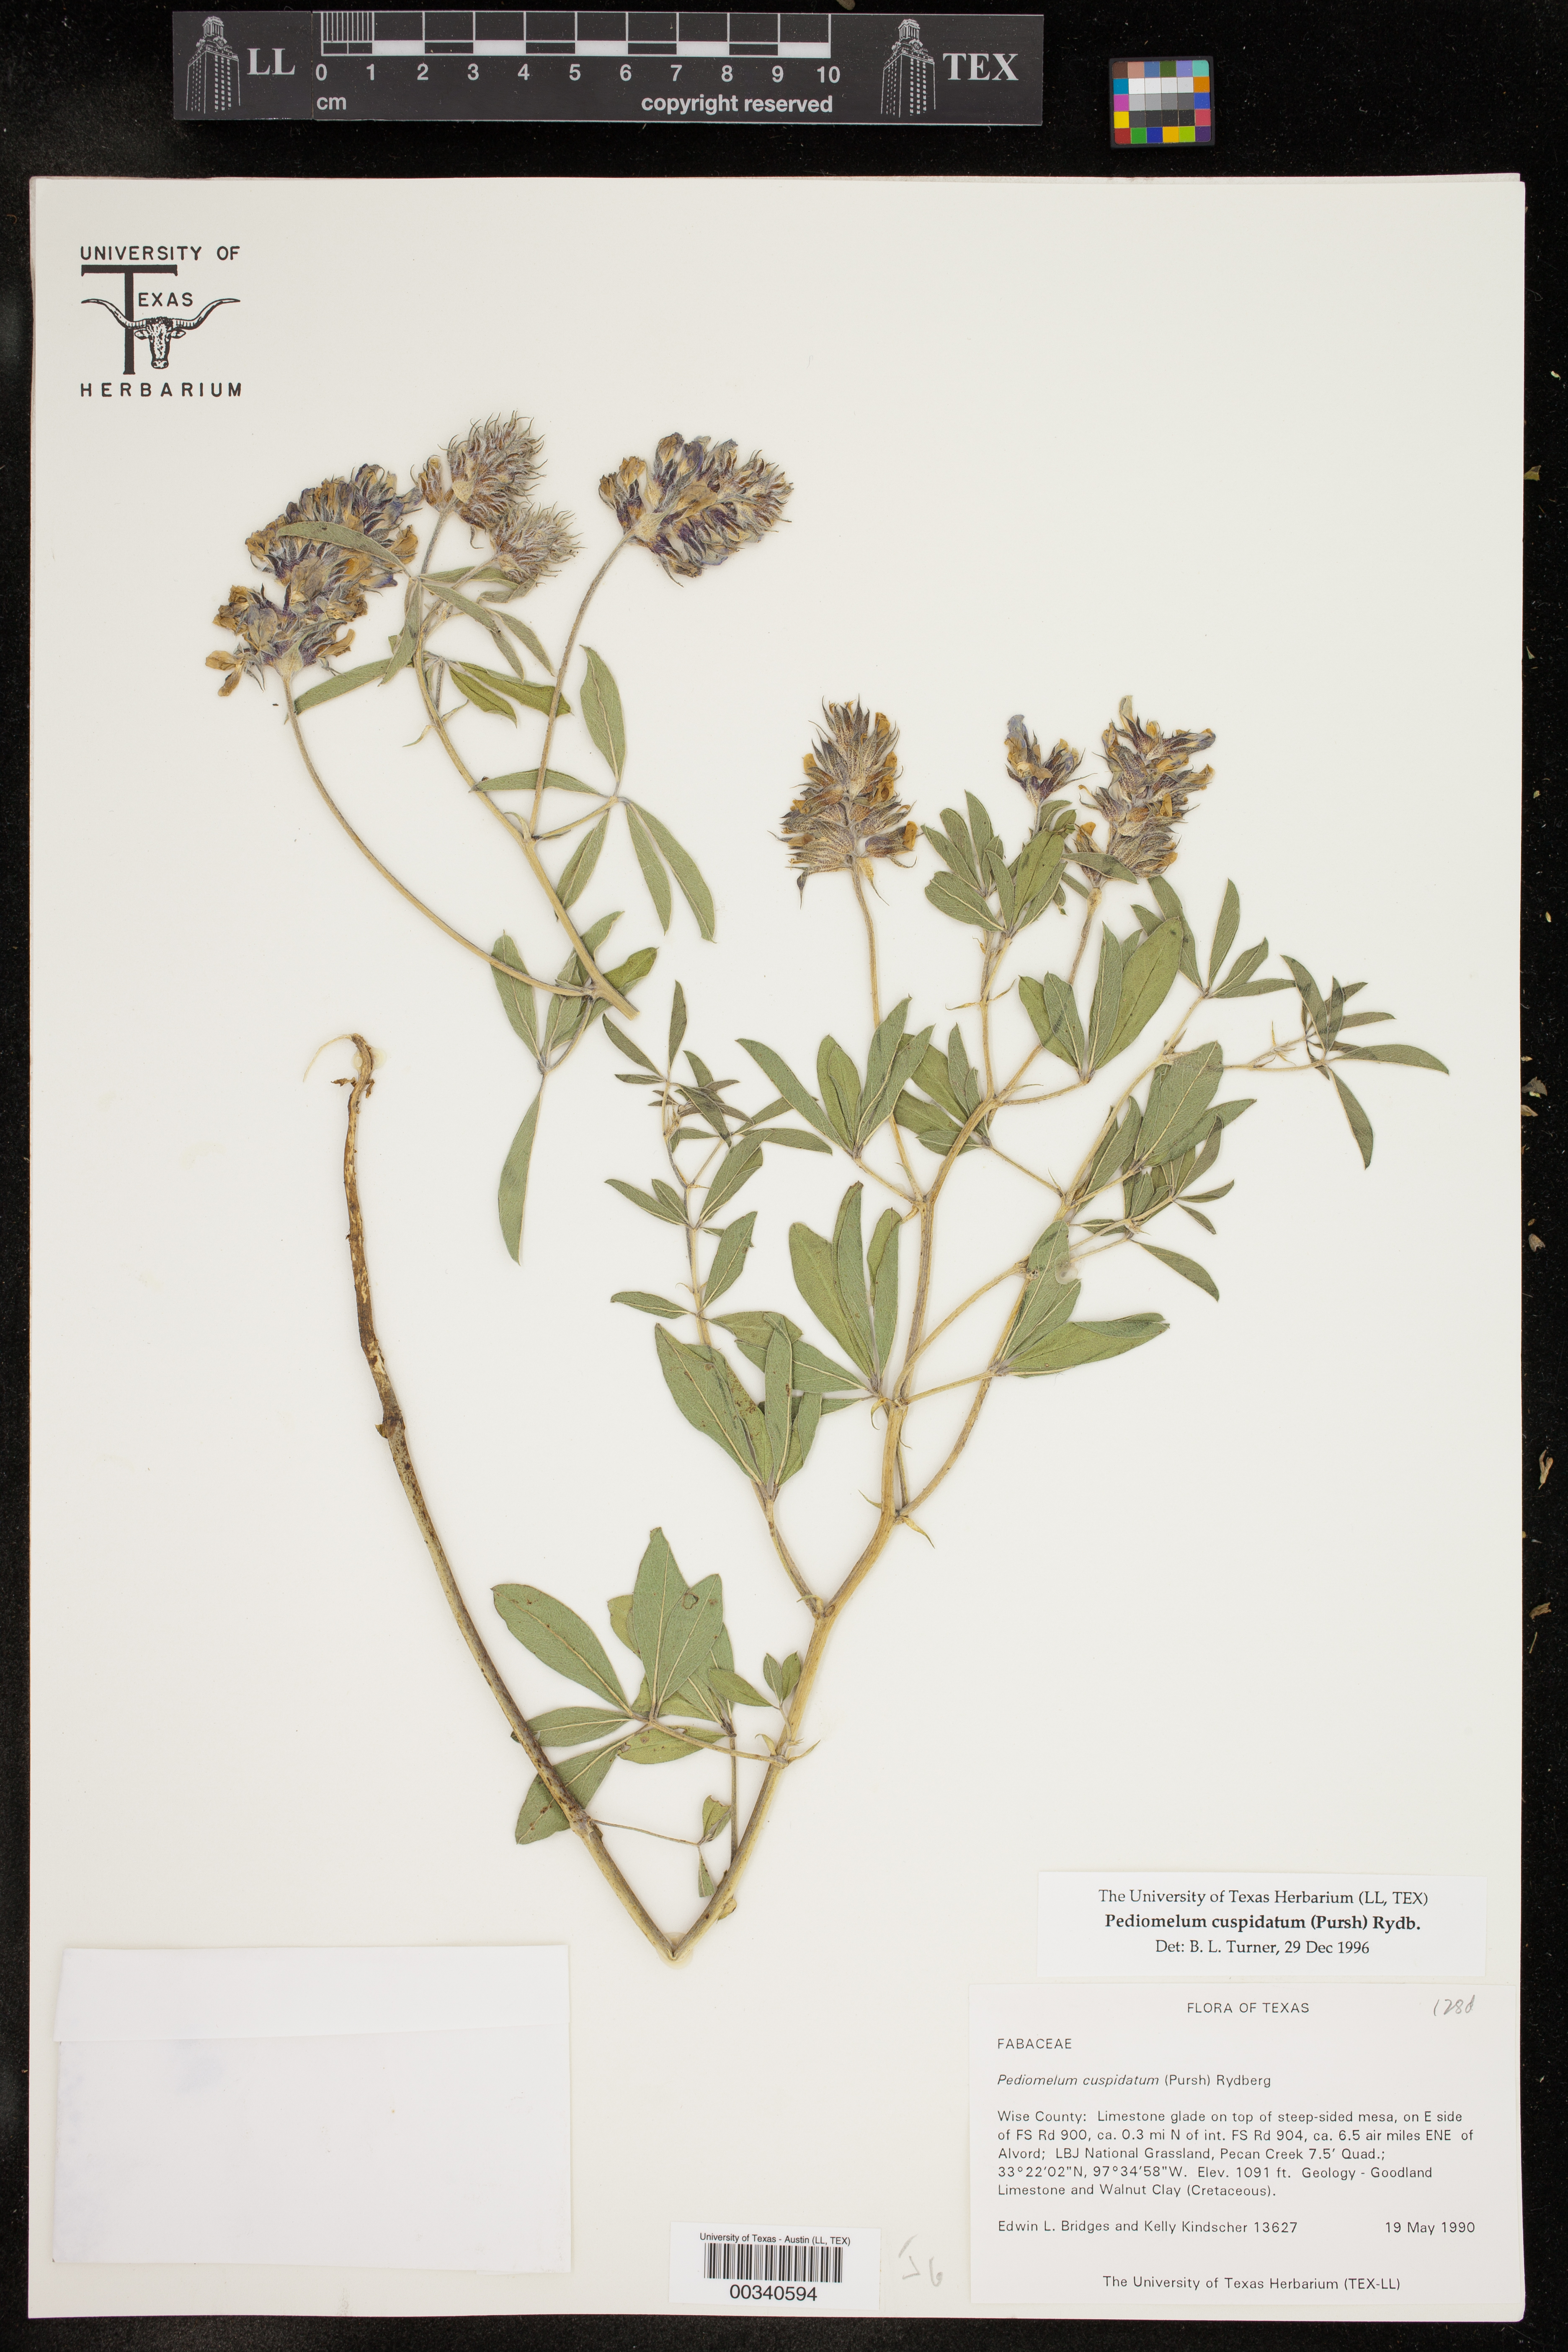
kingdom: Plantae
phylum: Tracheophyta
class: Magnoliopsida
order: Fabales
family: Fabaceae
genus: Pediomelum
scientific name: Pediomelum cuspidatum
